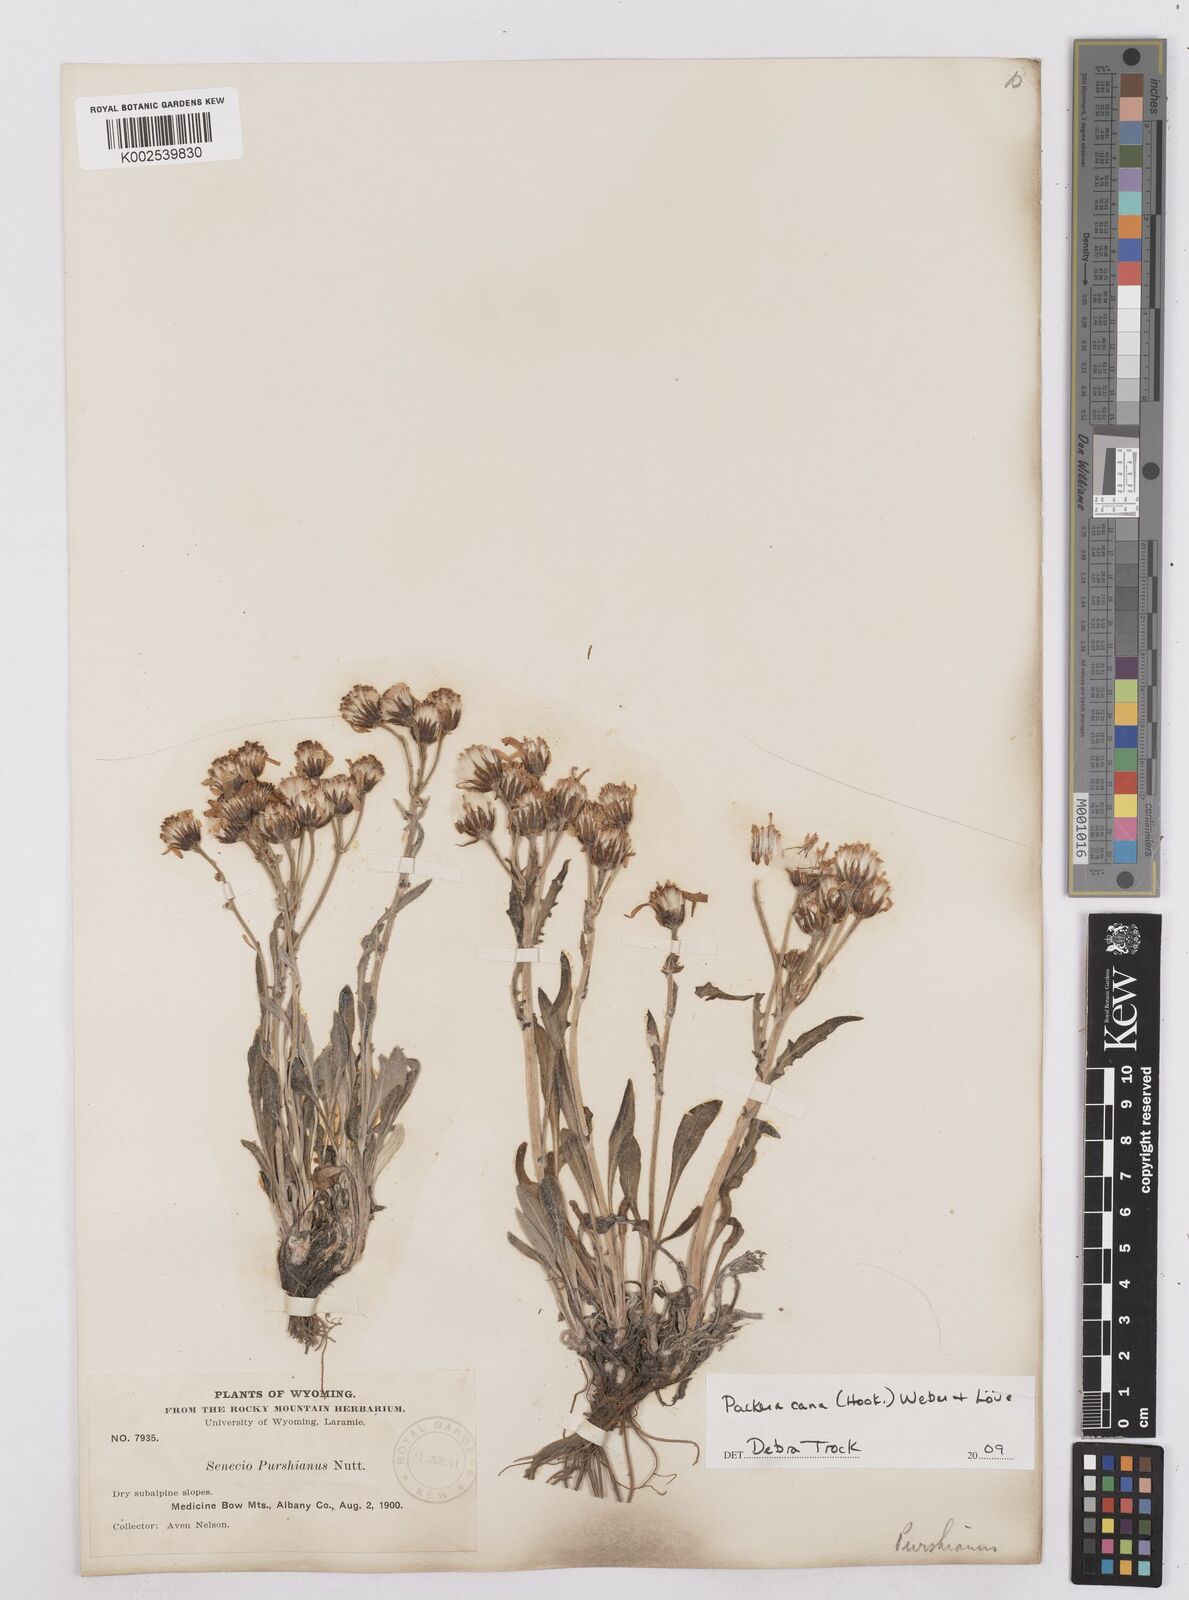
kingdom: Plantae
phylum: Tracheophyta
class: Magnoliopsida
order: Asterales
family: Asteraceae
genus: Packera
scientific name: Packera cana
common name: Woolly groundsel
